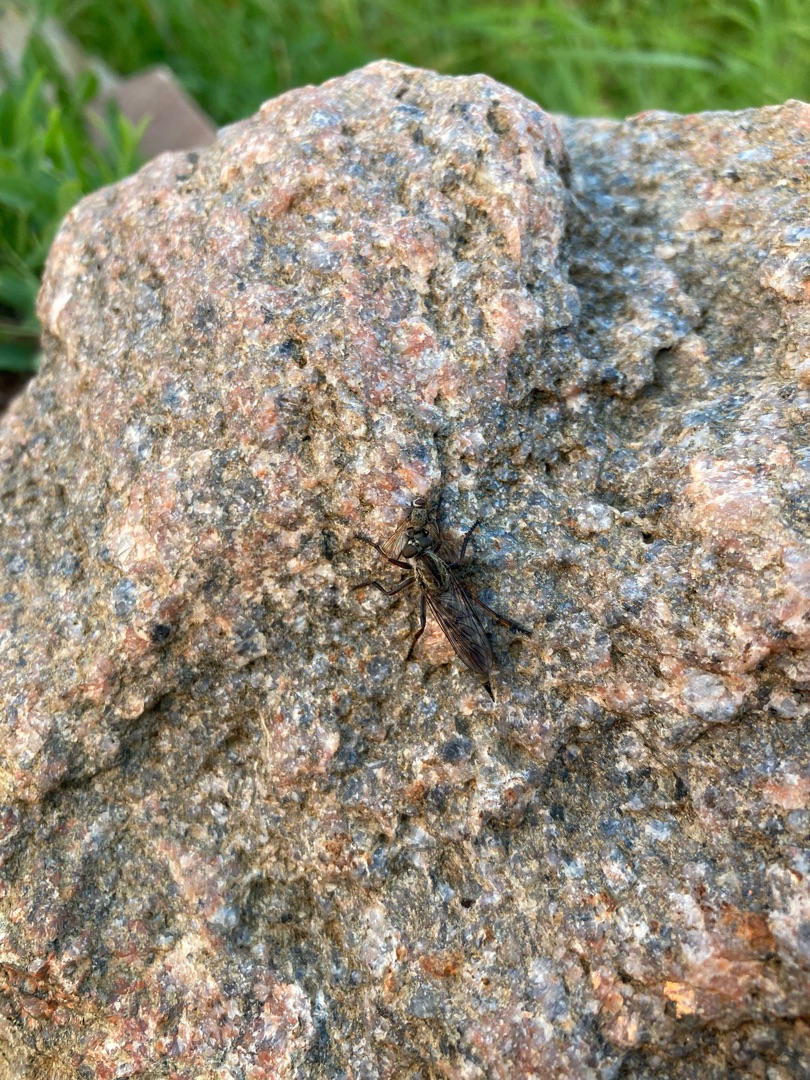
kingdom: Animalia
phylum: Arthropoda
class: Insecta
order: Diptera
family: Asilidae
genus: Machimus
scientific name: Machimus atricapillus
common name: Sort hårrovflue
